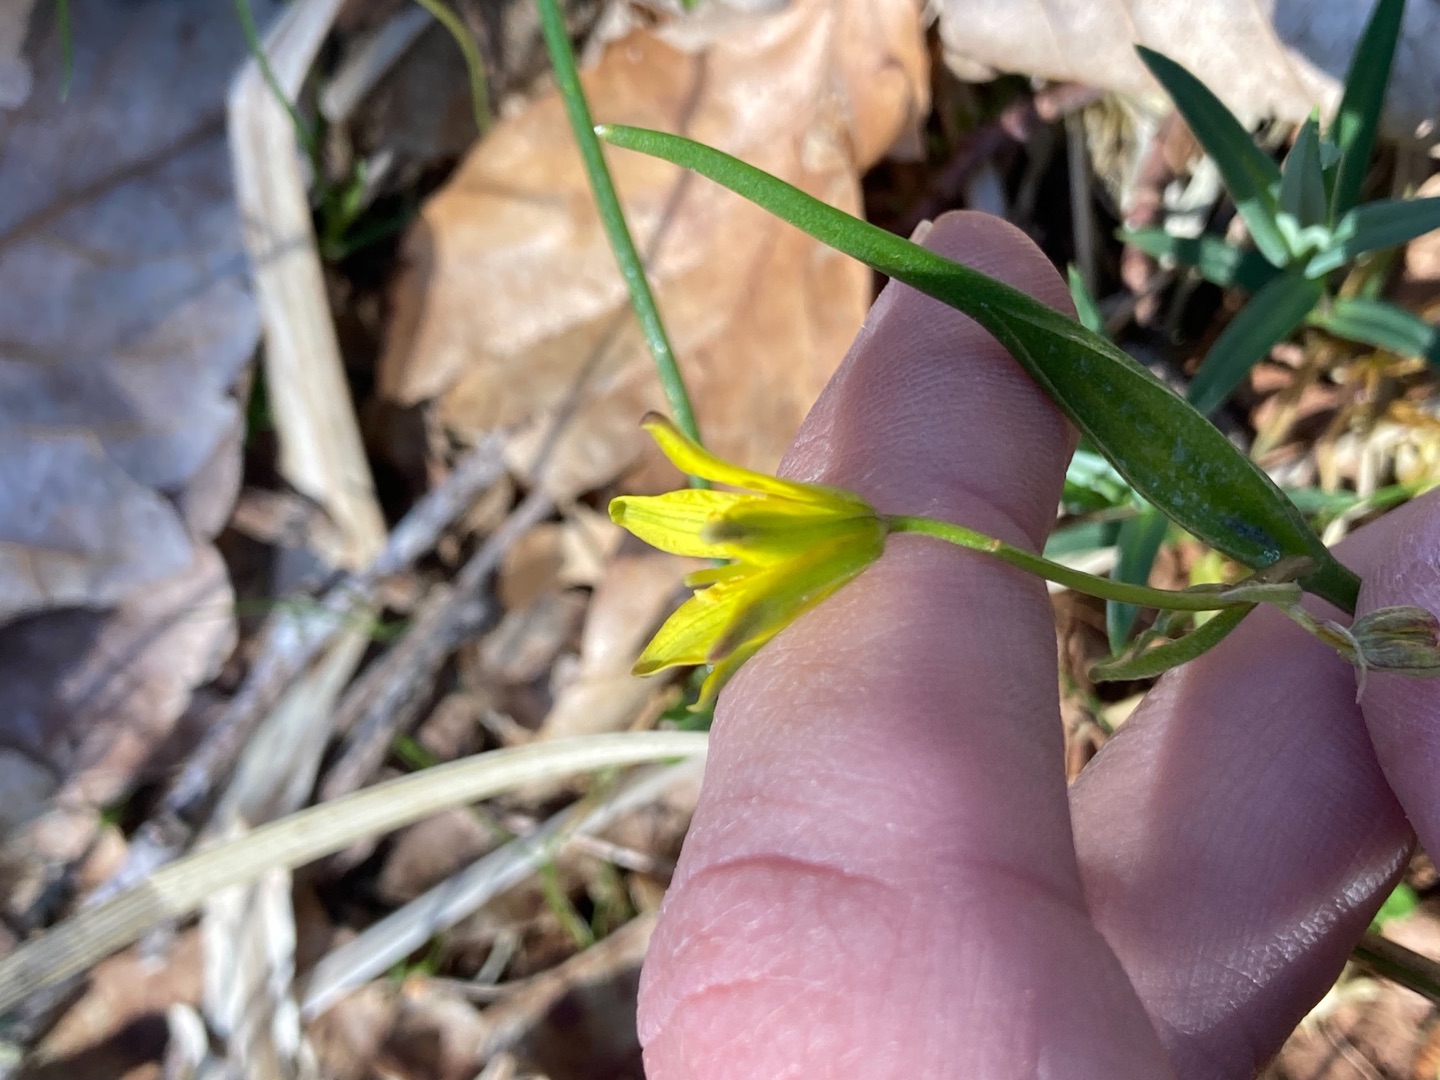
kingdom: Plantae
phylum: Tracheophyta
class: Liliopsida
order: Liliales
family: Liliaceae
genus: Gagea
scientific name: Gagea spathacea
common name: Hylster-guldstjerne
